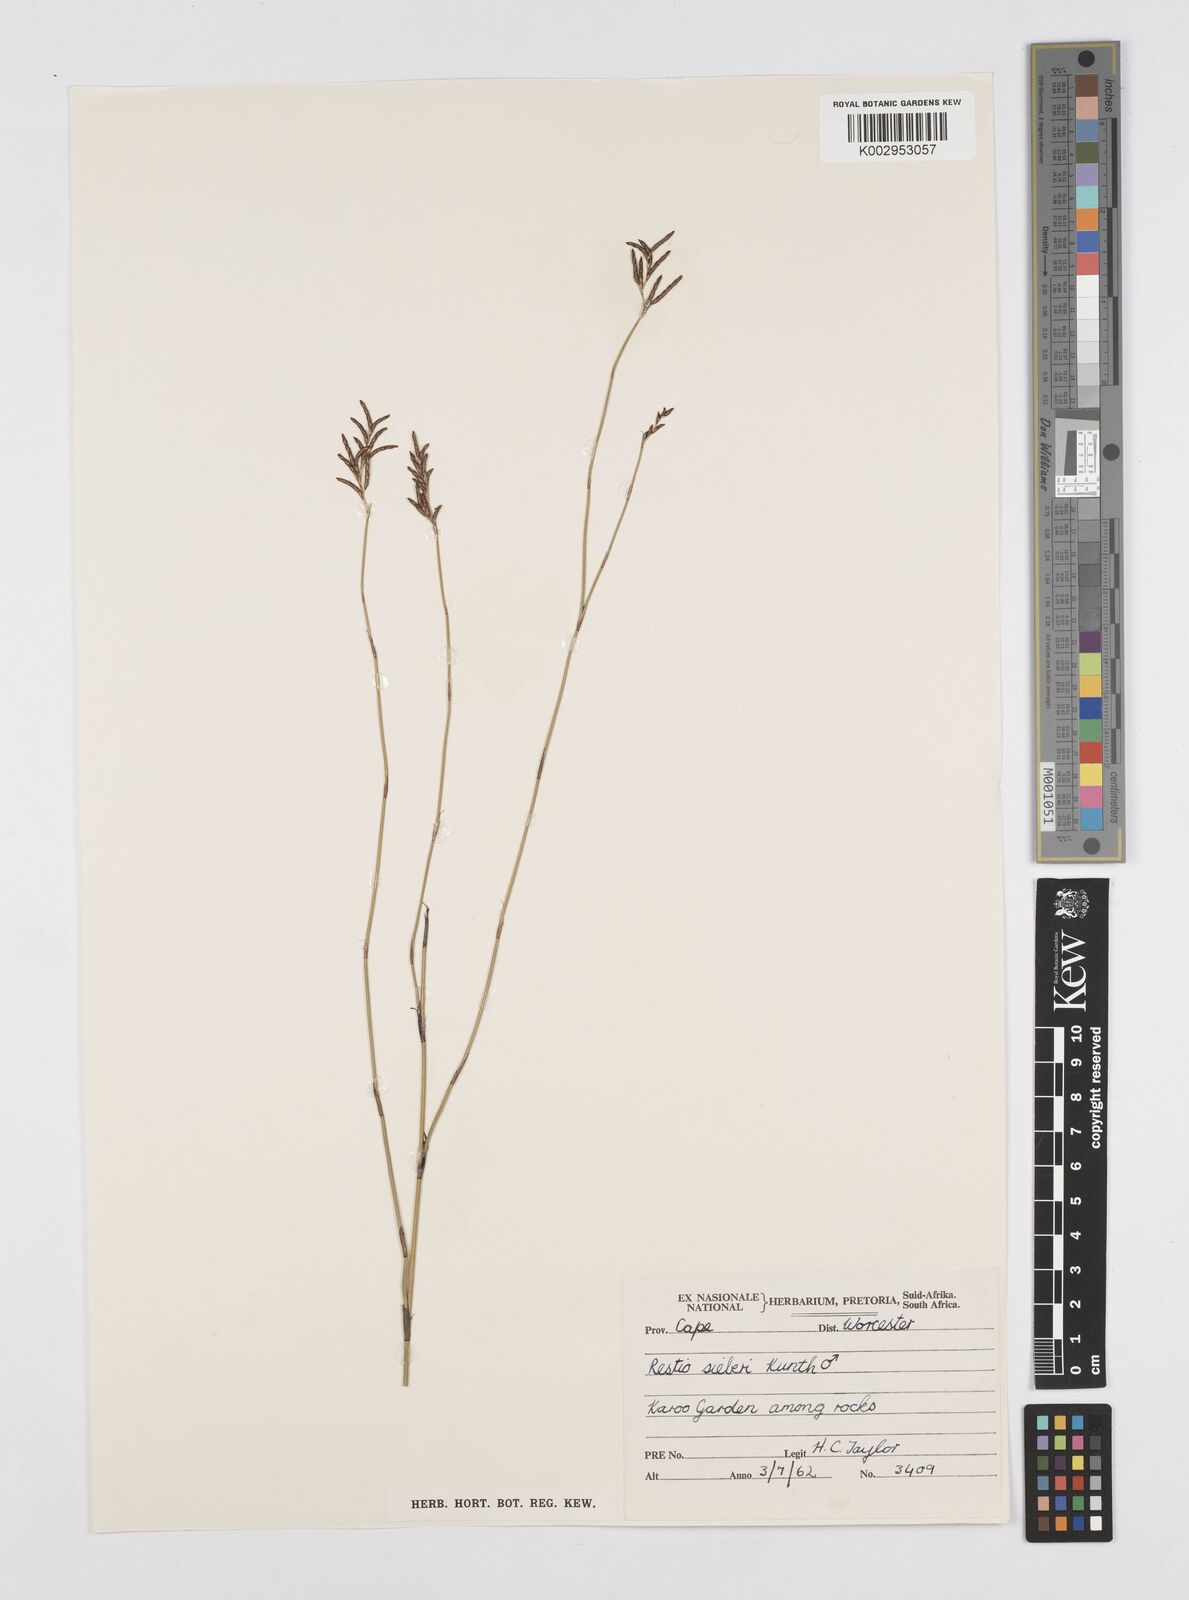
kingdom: Plantae
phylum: Tracheophyta
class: Liliopsida
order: Poales
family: Restionaceae
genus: Restio
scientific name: Restio sieberi
